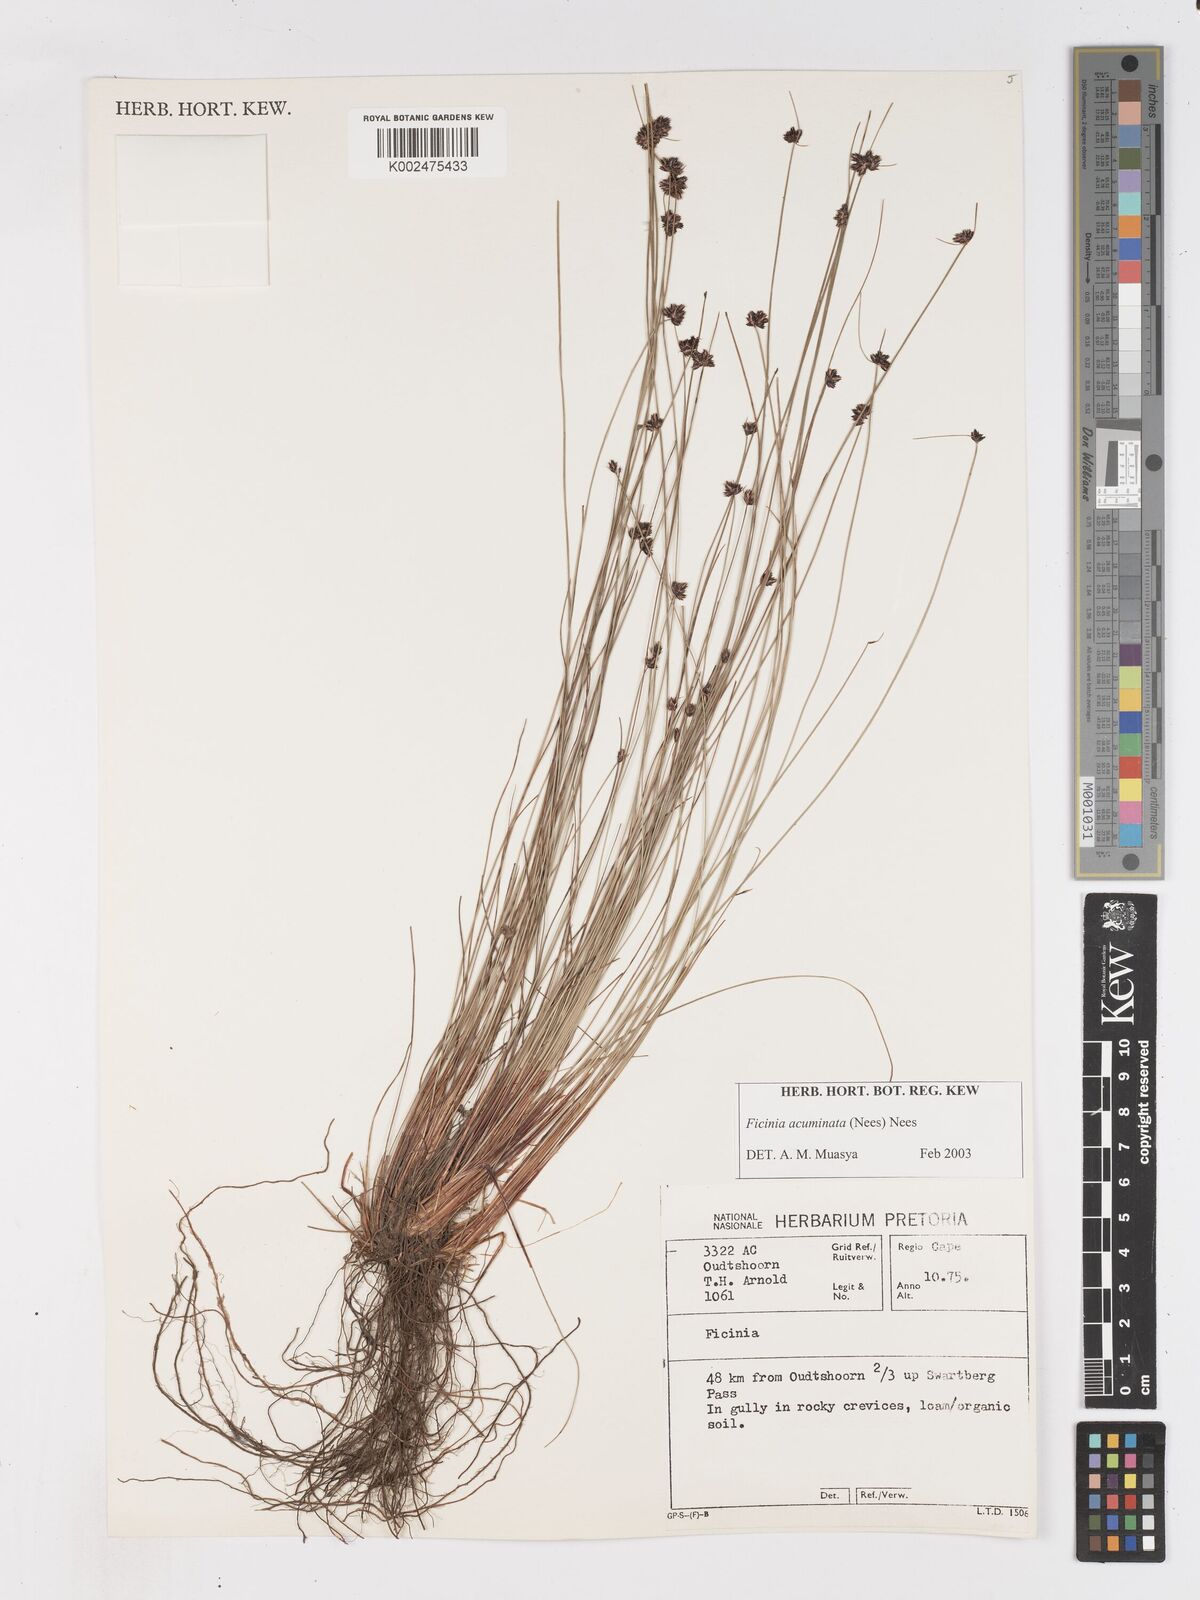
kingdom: Plantae
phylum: Tracheophyta
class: Liliopsida
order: Poales
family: Cyperaceae
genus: Ficinia
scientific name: Ficinia acuminata
